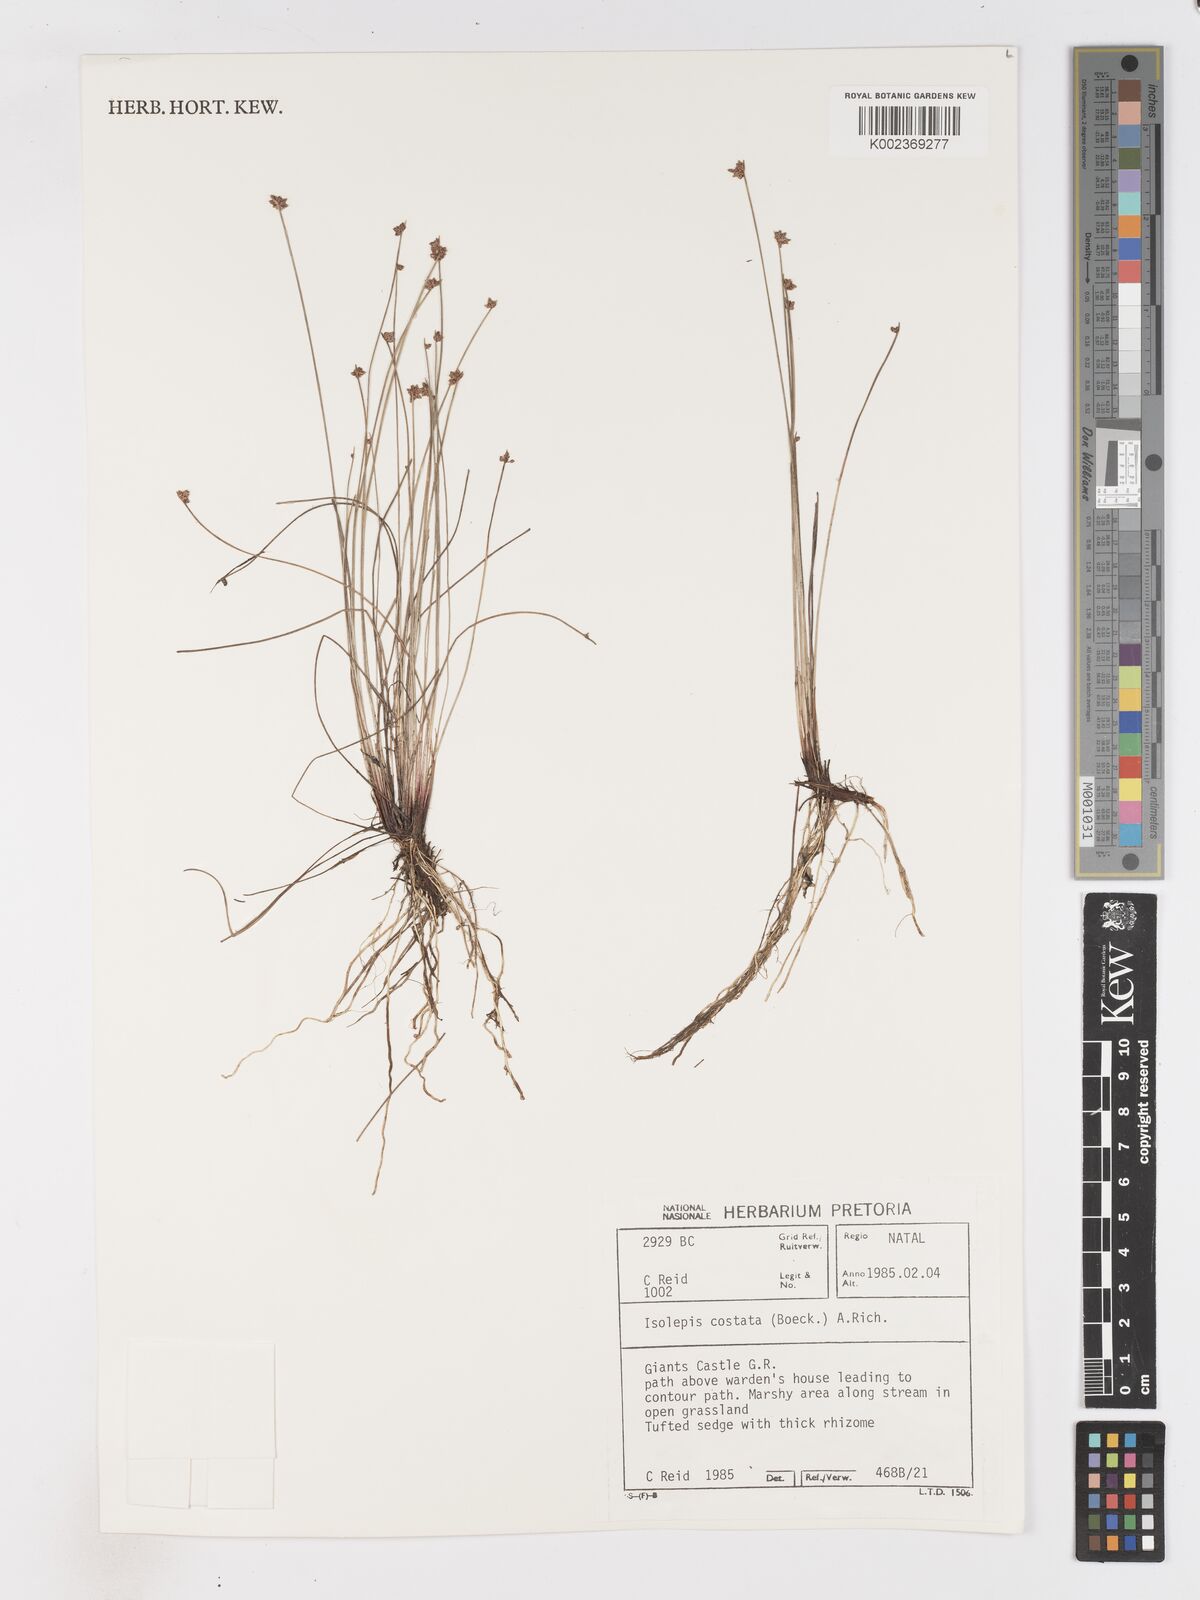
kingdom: Plantae
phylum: Tracheophyta
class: Liliopsida
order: Poales
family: Cyperaceae
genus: Isolepis
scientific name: Isolepis costata
